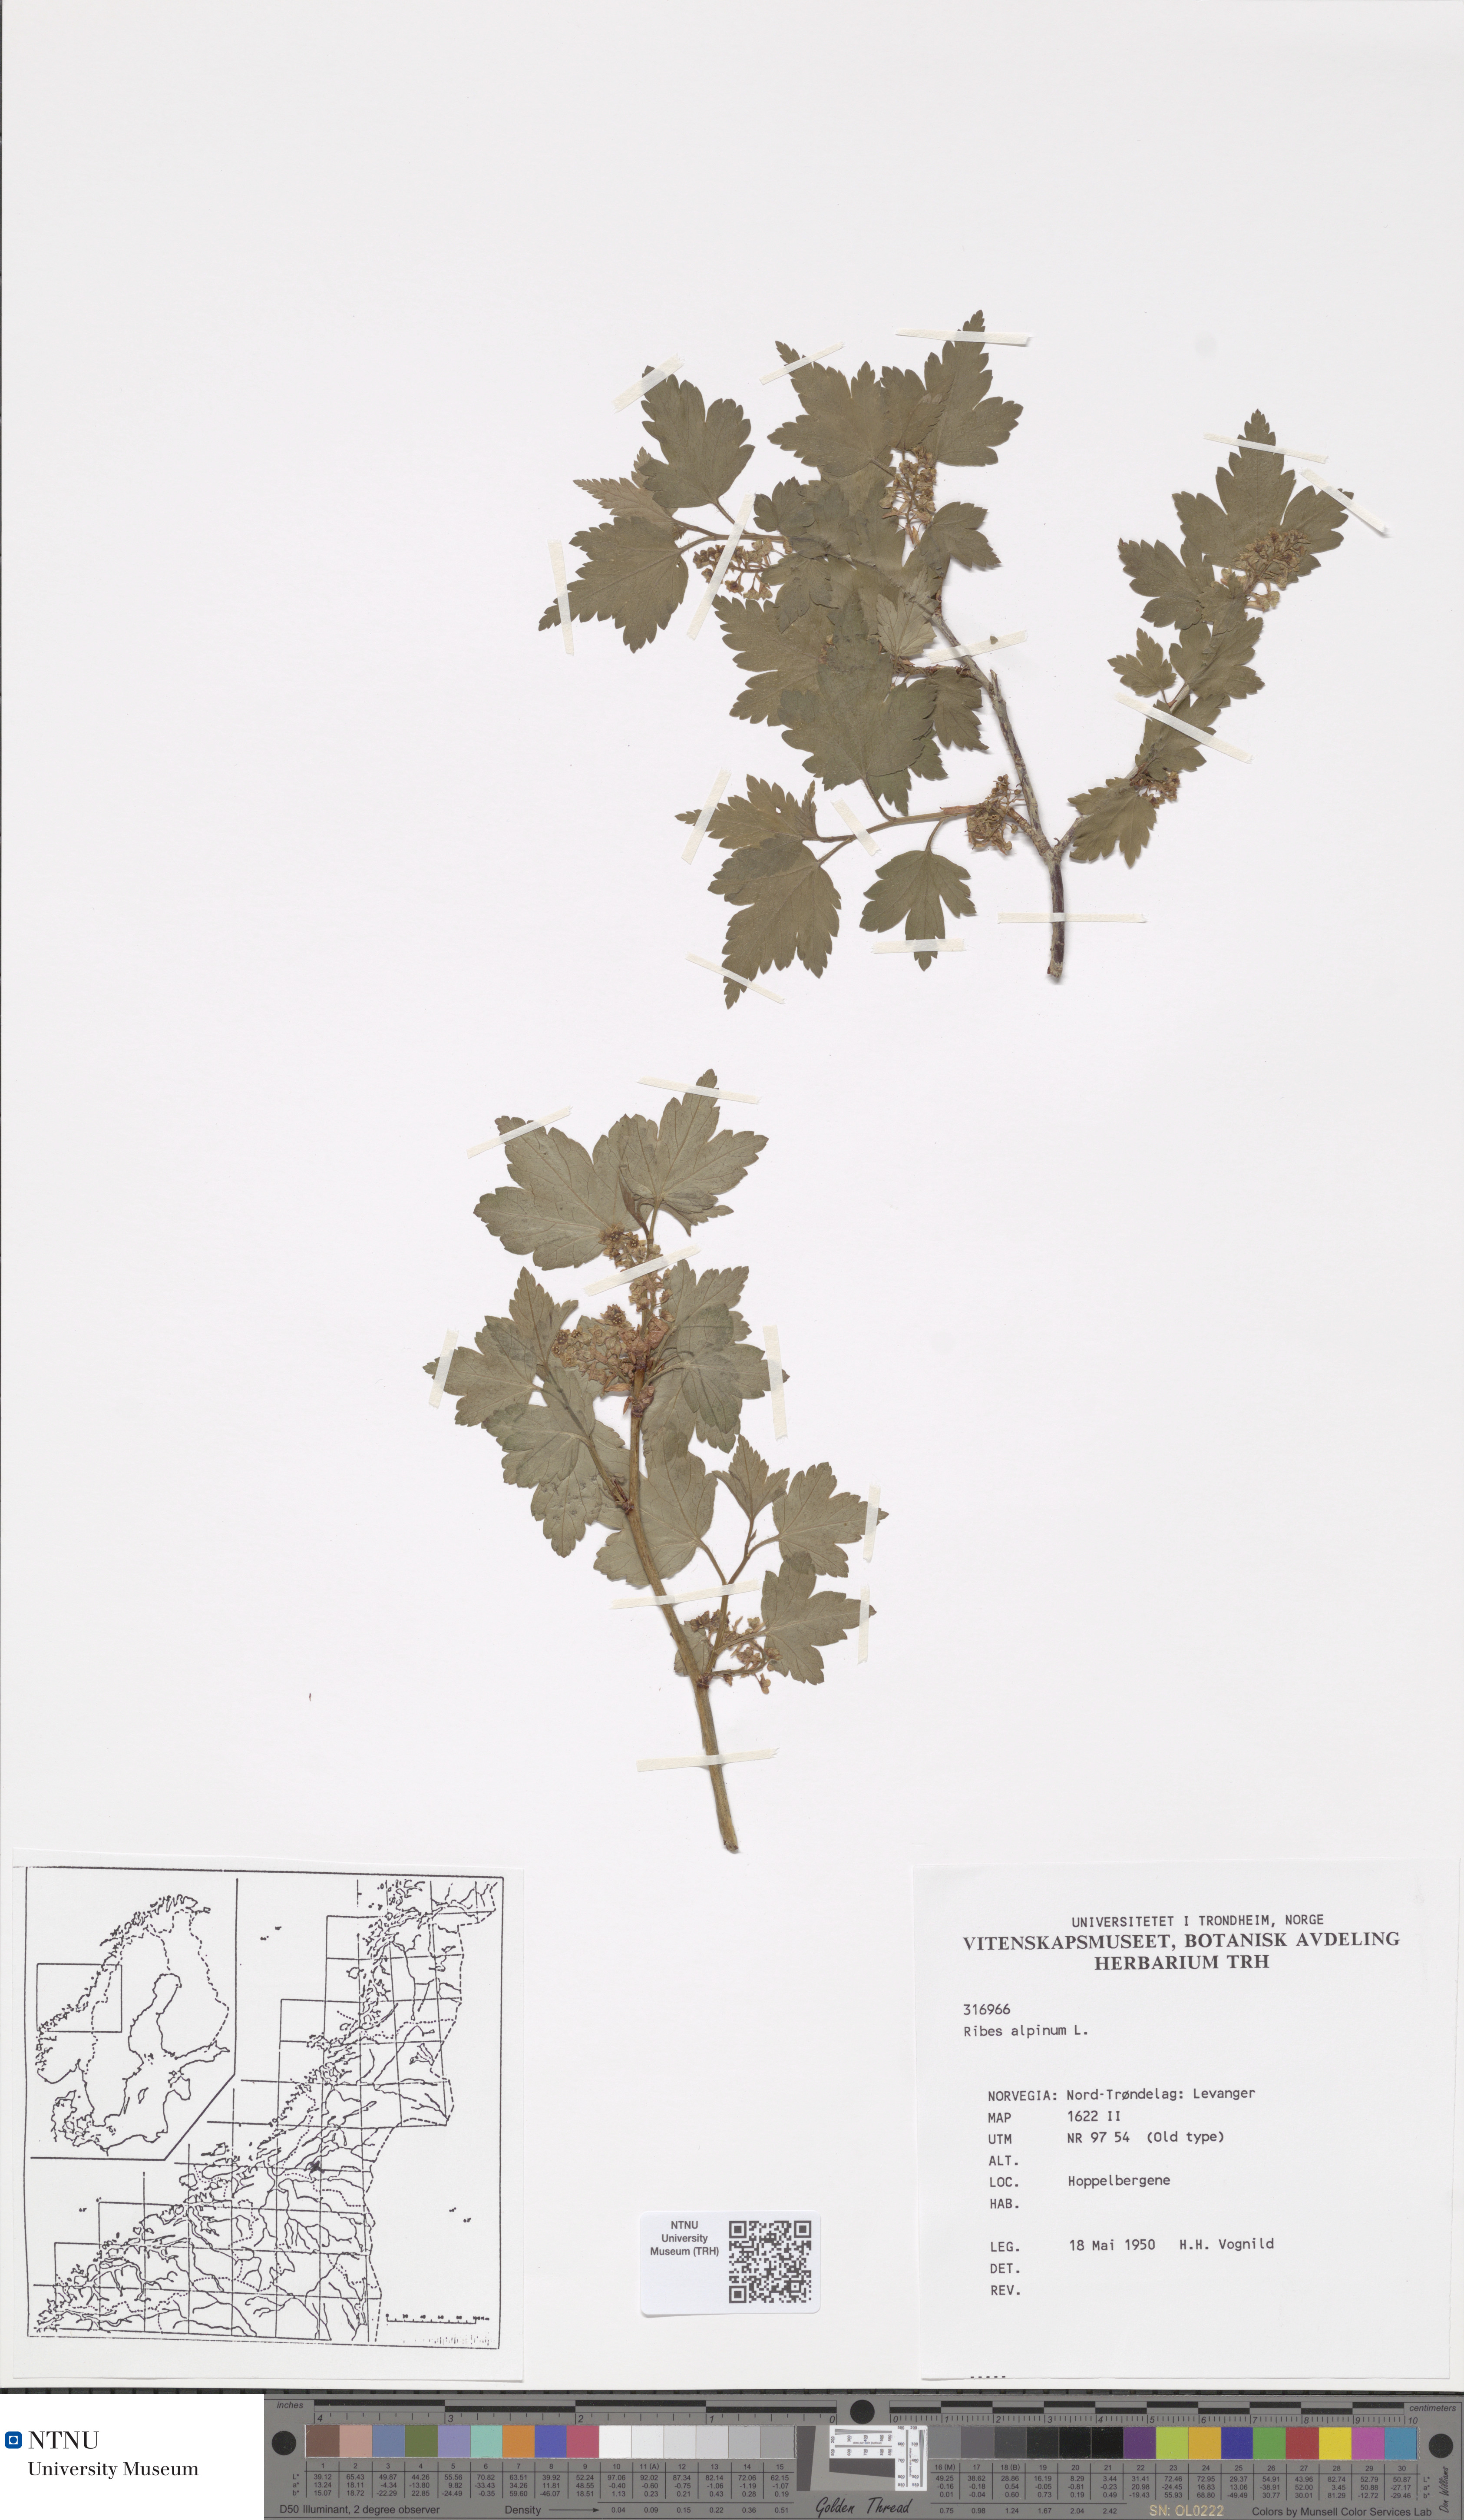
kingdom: Plantae
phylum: Tracheophyta
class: Magnoliopsida
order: Saxifragales
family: Grossulariaceae
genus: Ribes
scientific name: Ribes alpinum
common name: Alpine currant
